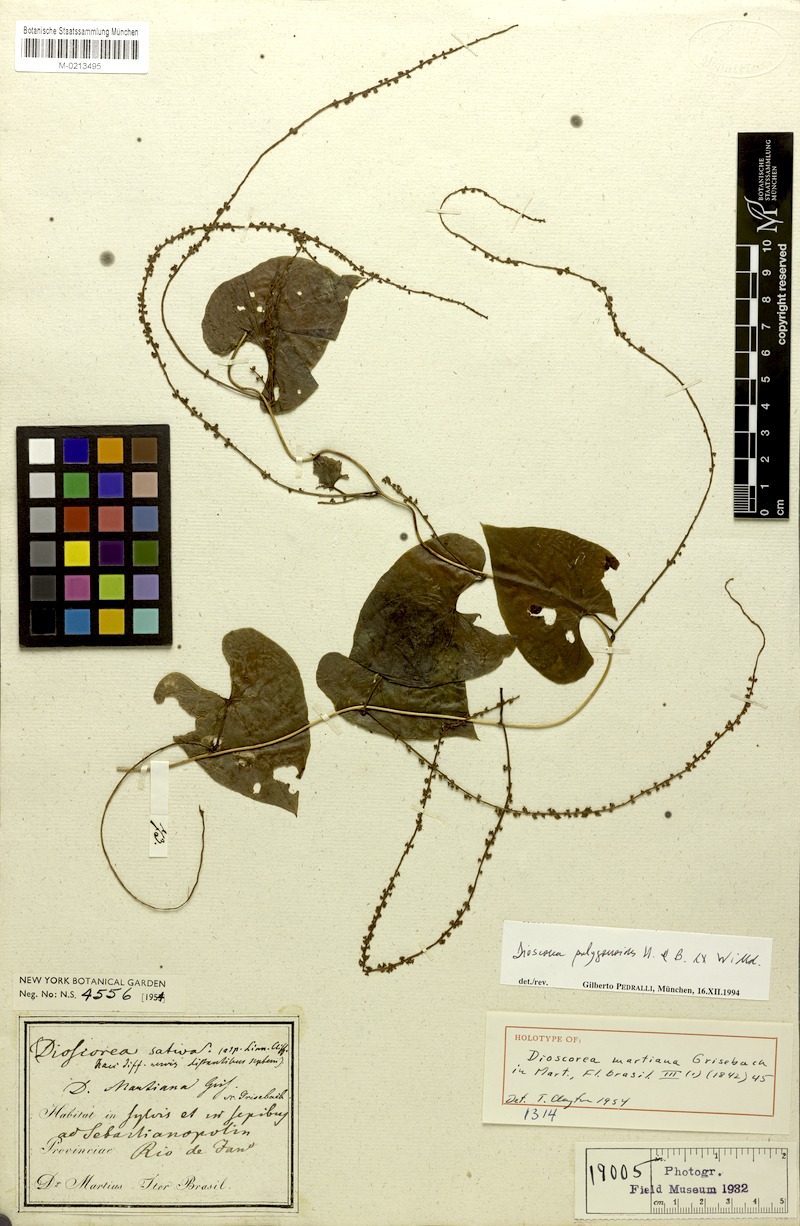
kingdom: Plantae
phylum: Tracheophyta
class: Liliopsida
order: Dioscoreales
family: Dioscoreaceae
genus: Dioscorea
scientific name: Dioscorea martiana
